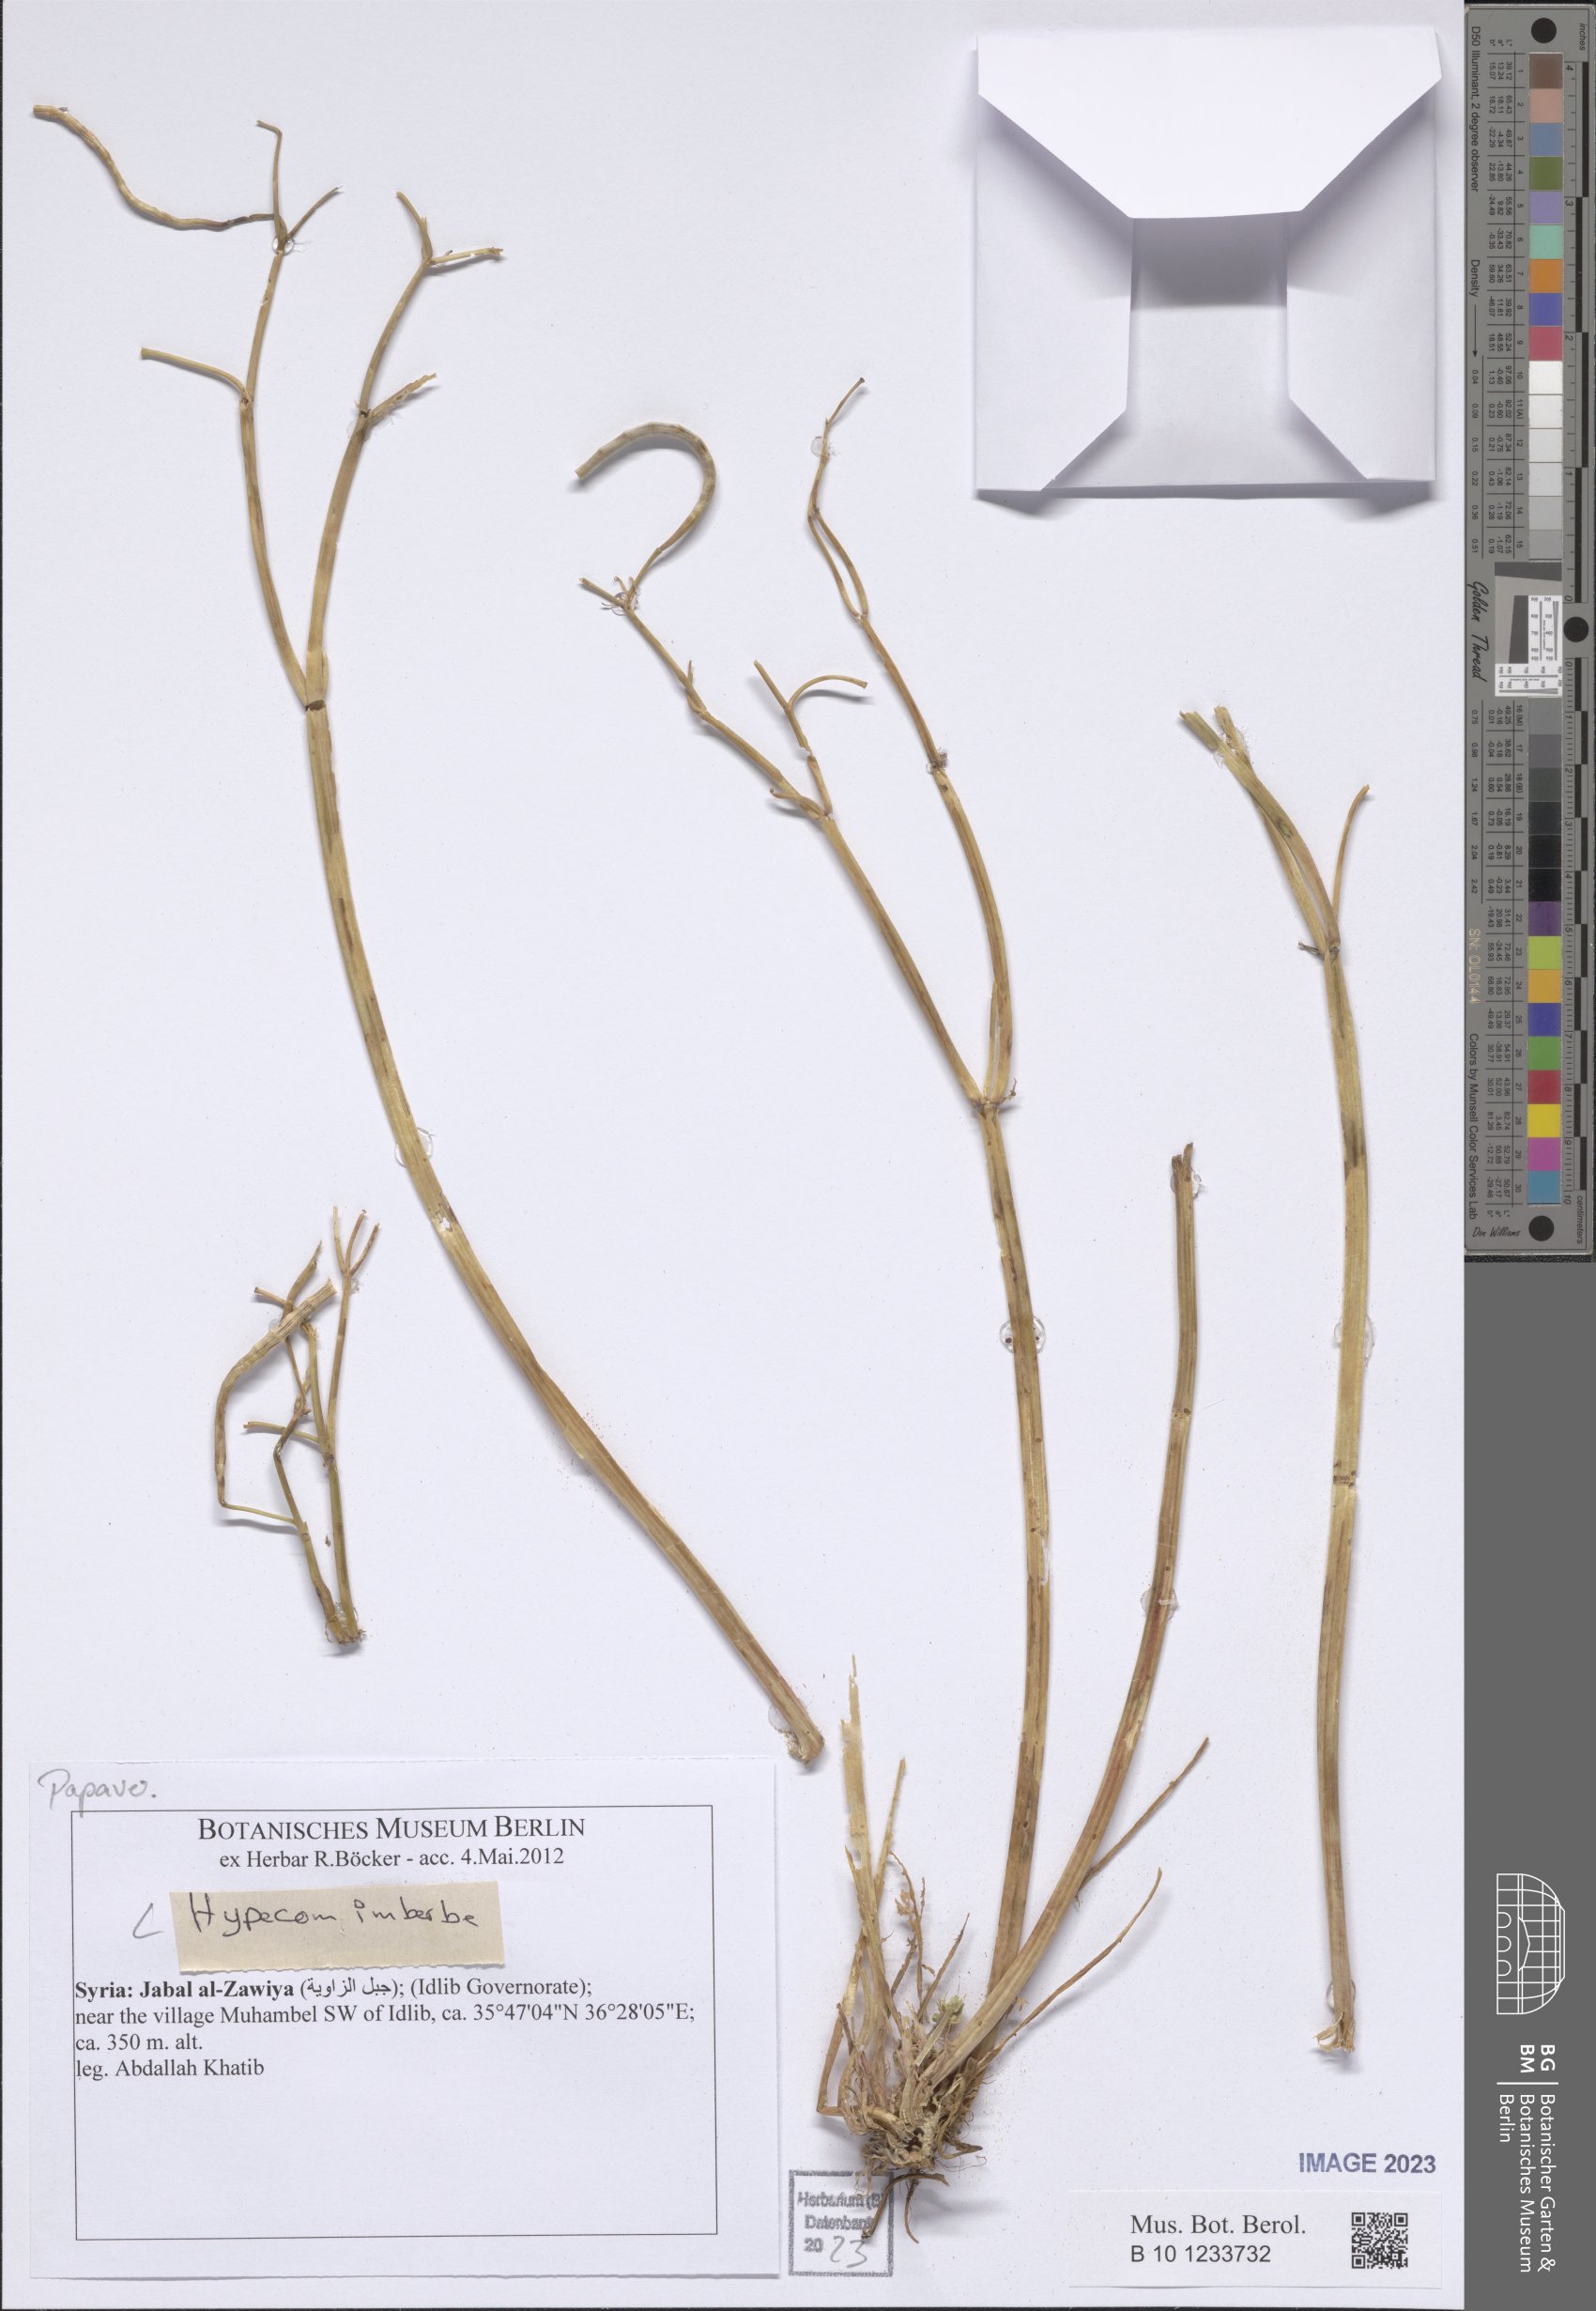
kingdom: Plantae
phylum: Tracheophyta
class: Magnoliopsida
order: Ranunculales
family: Papaveraceae
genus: Hypecoum
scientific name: Hypecoum imberbe
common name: Sicklefruit hypecoum
